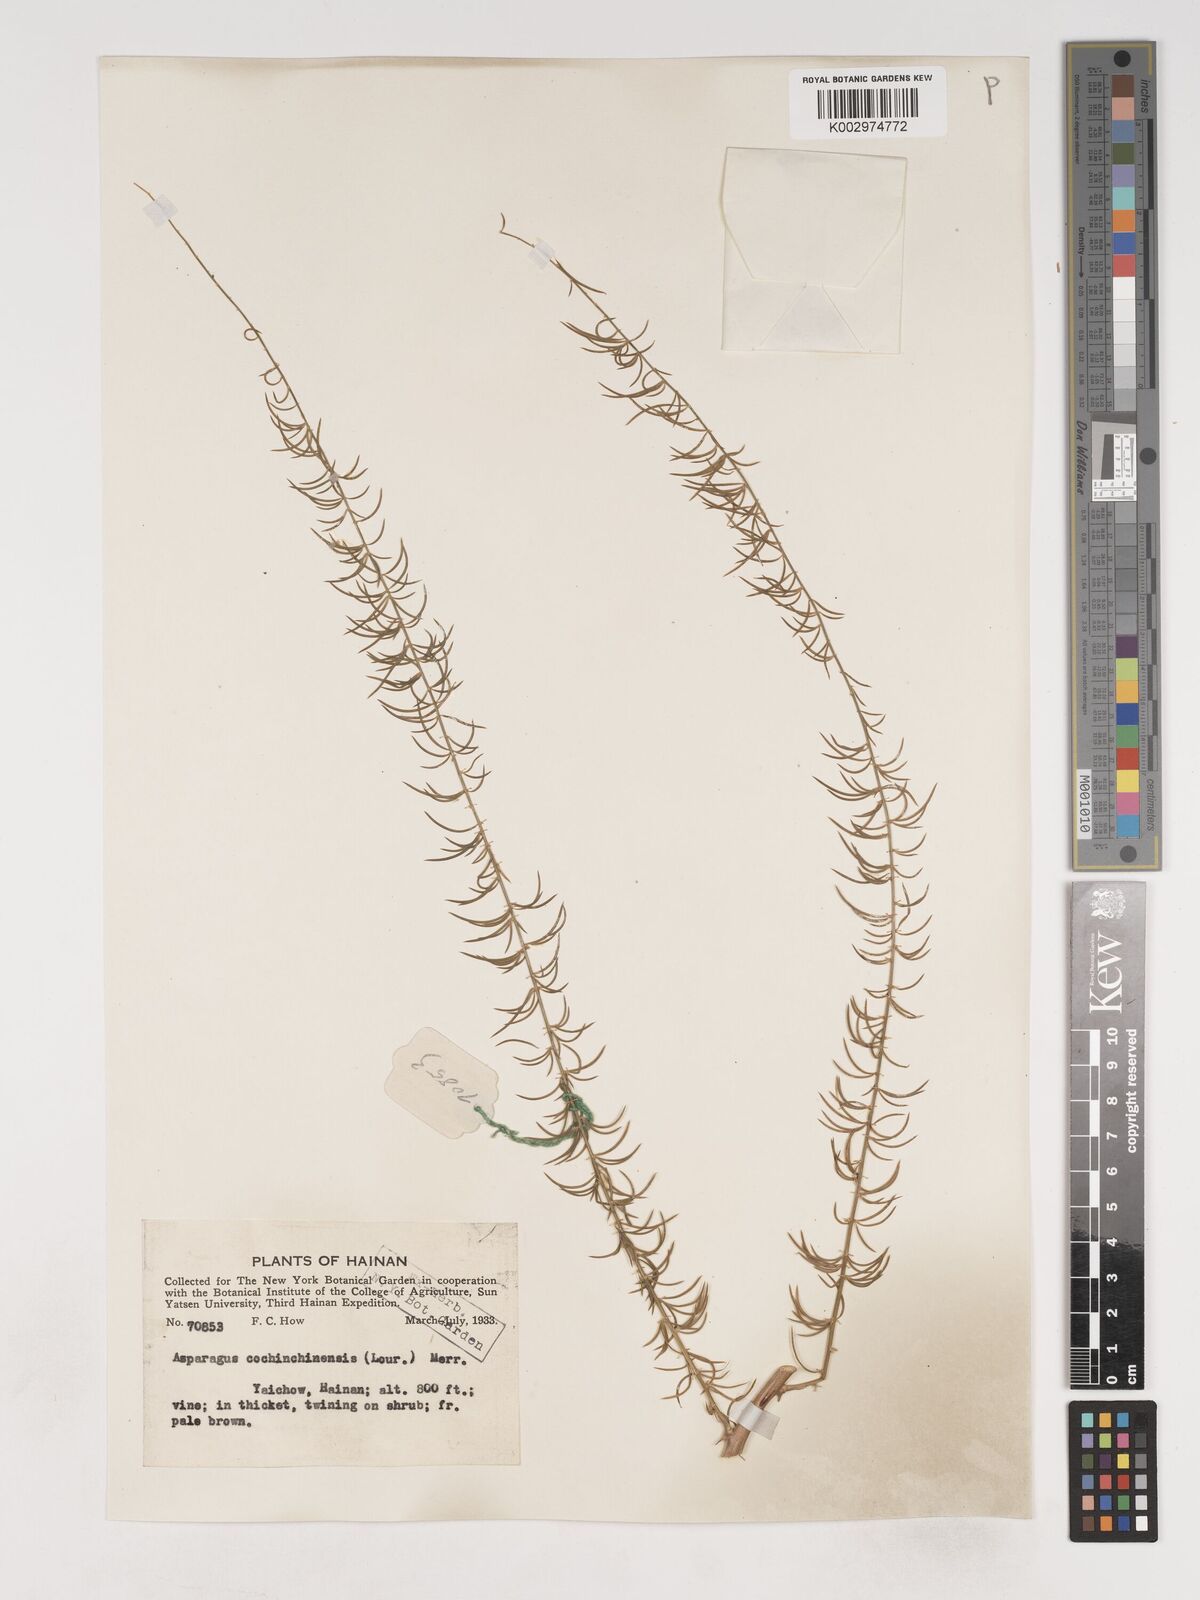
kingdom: Plantae
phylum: Tracheophyta
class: Liliopsida
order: Asparagales
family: Asparagaceae
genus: Asparagus
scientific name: Asparagus cochinchinensis
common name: Chinese asparagus
